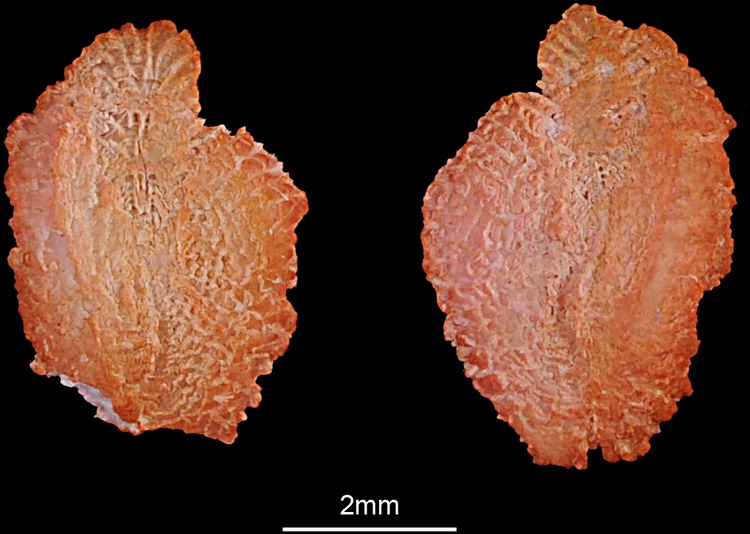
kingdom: Animalia
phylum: Chordata
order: Perciformes
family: Channidae
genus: Channa
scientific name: Channa punctata
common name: Spotted snakehead
